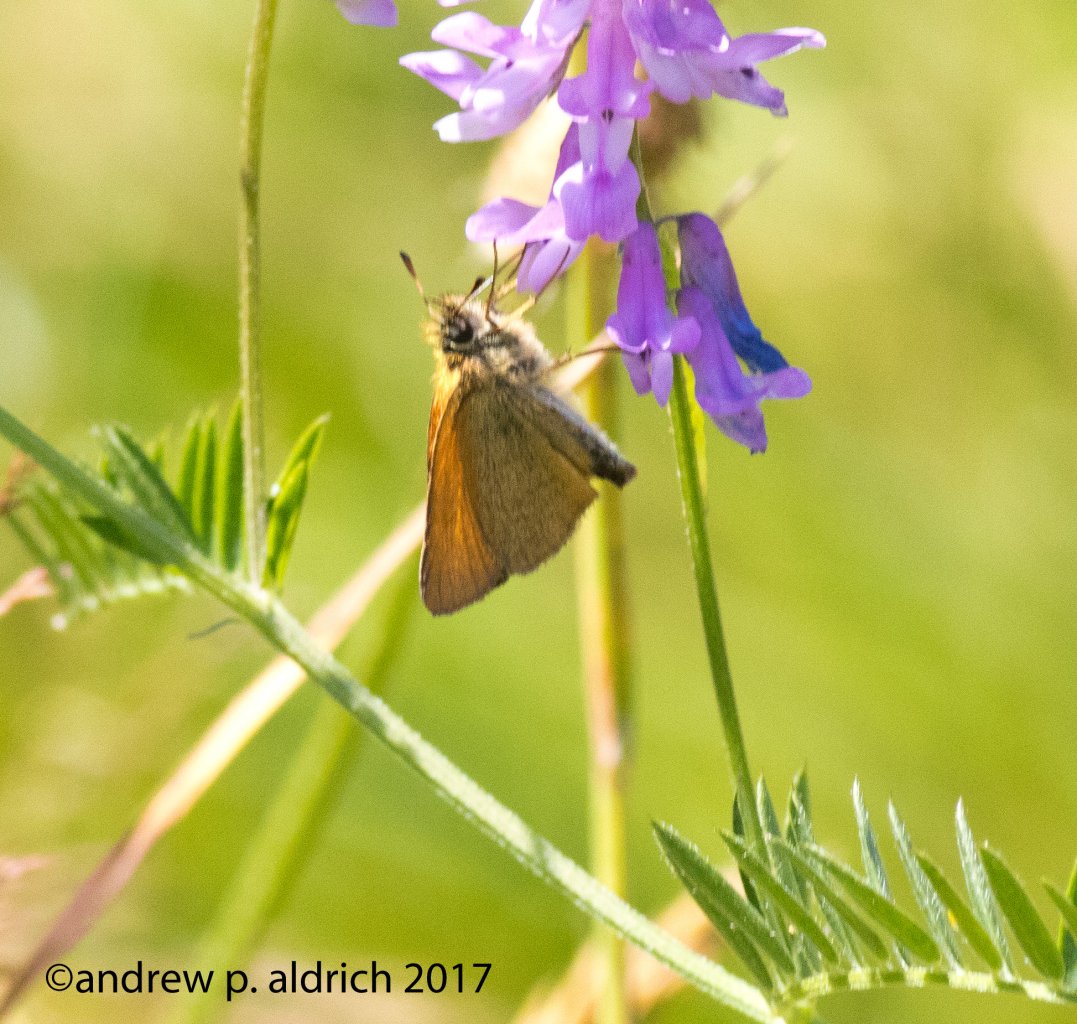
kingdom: Animalia
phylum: Arthropoda
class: Insecta
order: Lepidoptera
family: Hesperiidae
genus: Thymelicus
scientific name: Thymelicus lineola
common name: European Skipper
